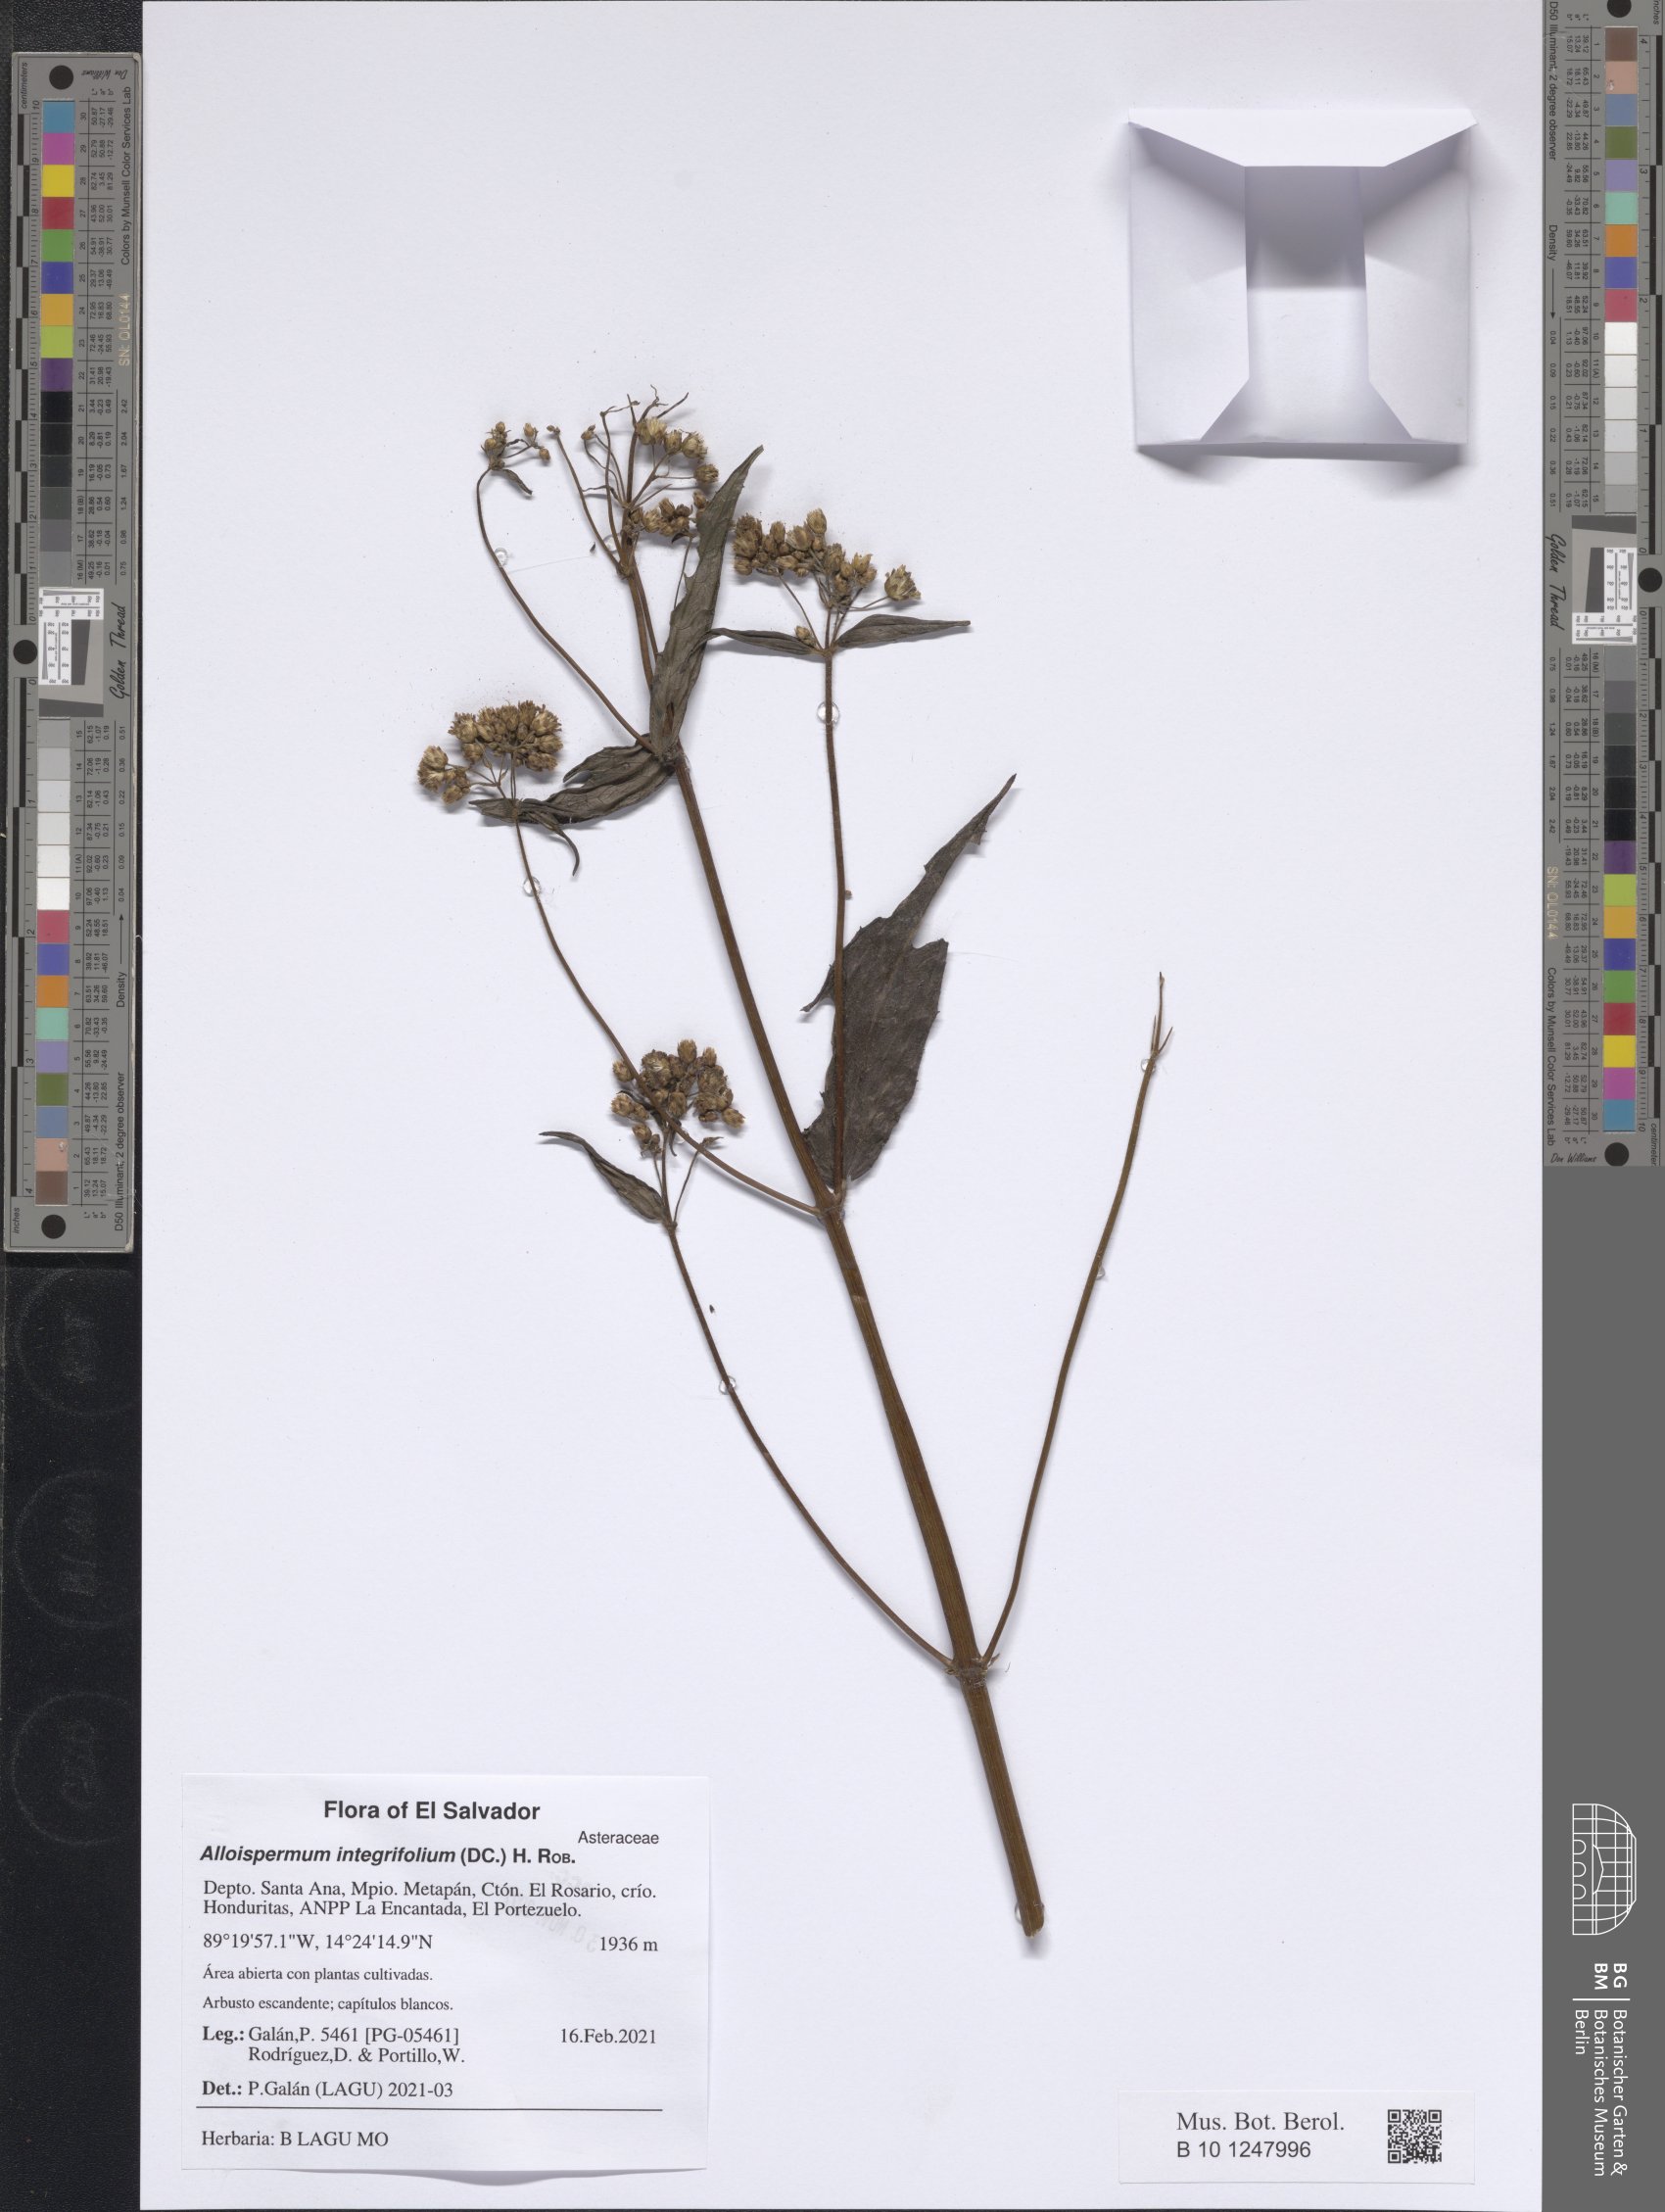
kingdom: Plantae
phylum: Tracheophyta
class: Magnoliopsida
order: Asterales
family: Asteraceae
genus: Alloispermum
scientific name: Alloispermum integrifolium
